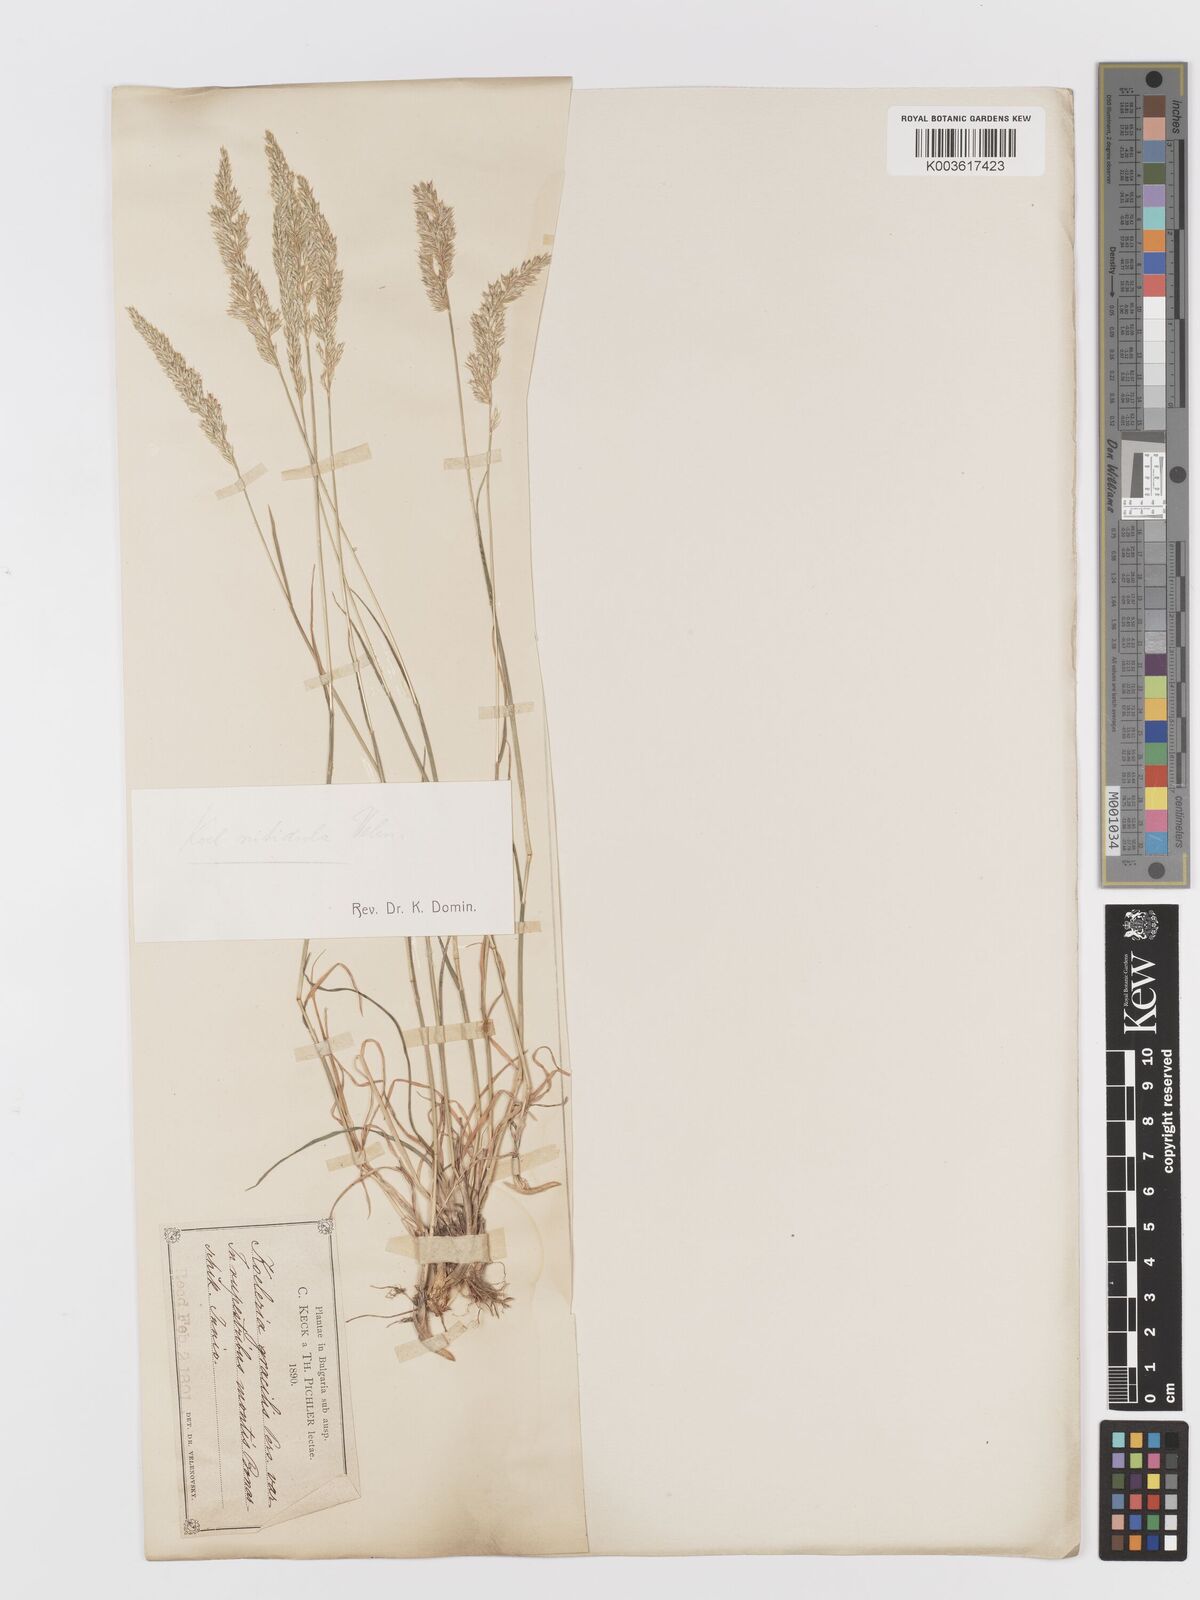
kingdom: Plantae
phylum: Tracheophyta
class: Liliopsida
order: Poales
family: Poaceae
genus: Koeleria
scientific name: Koeleria nitidula
